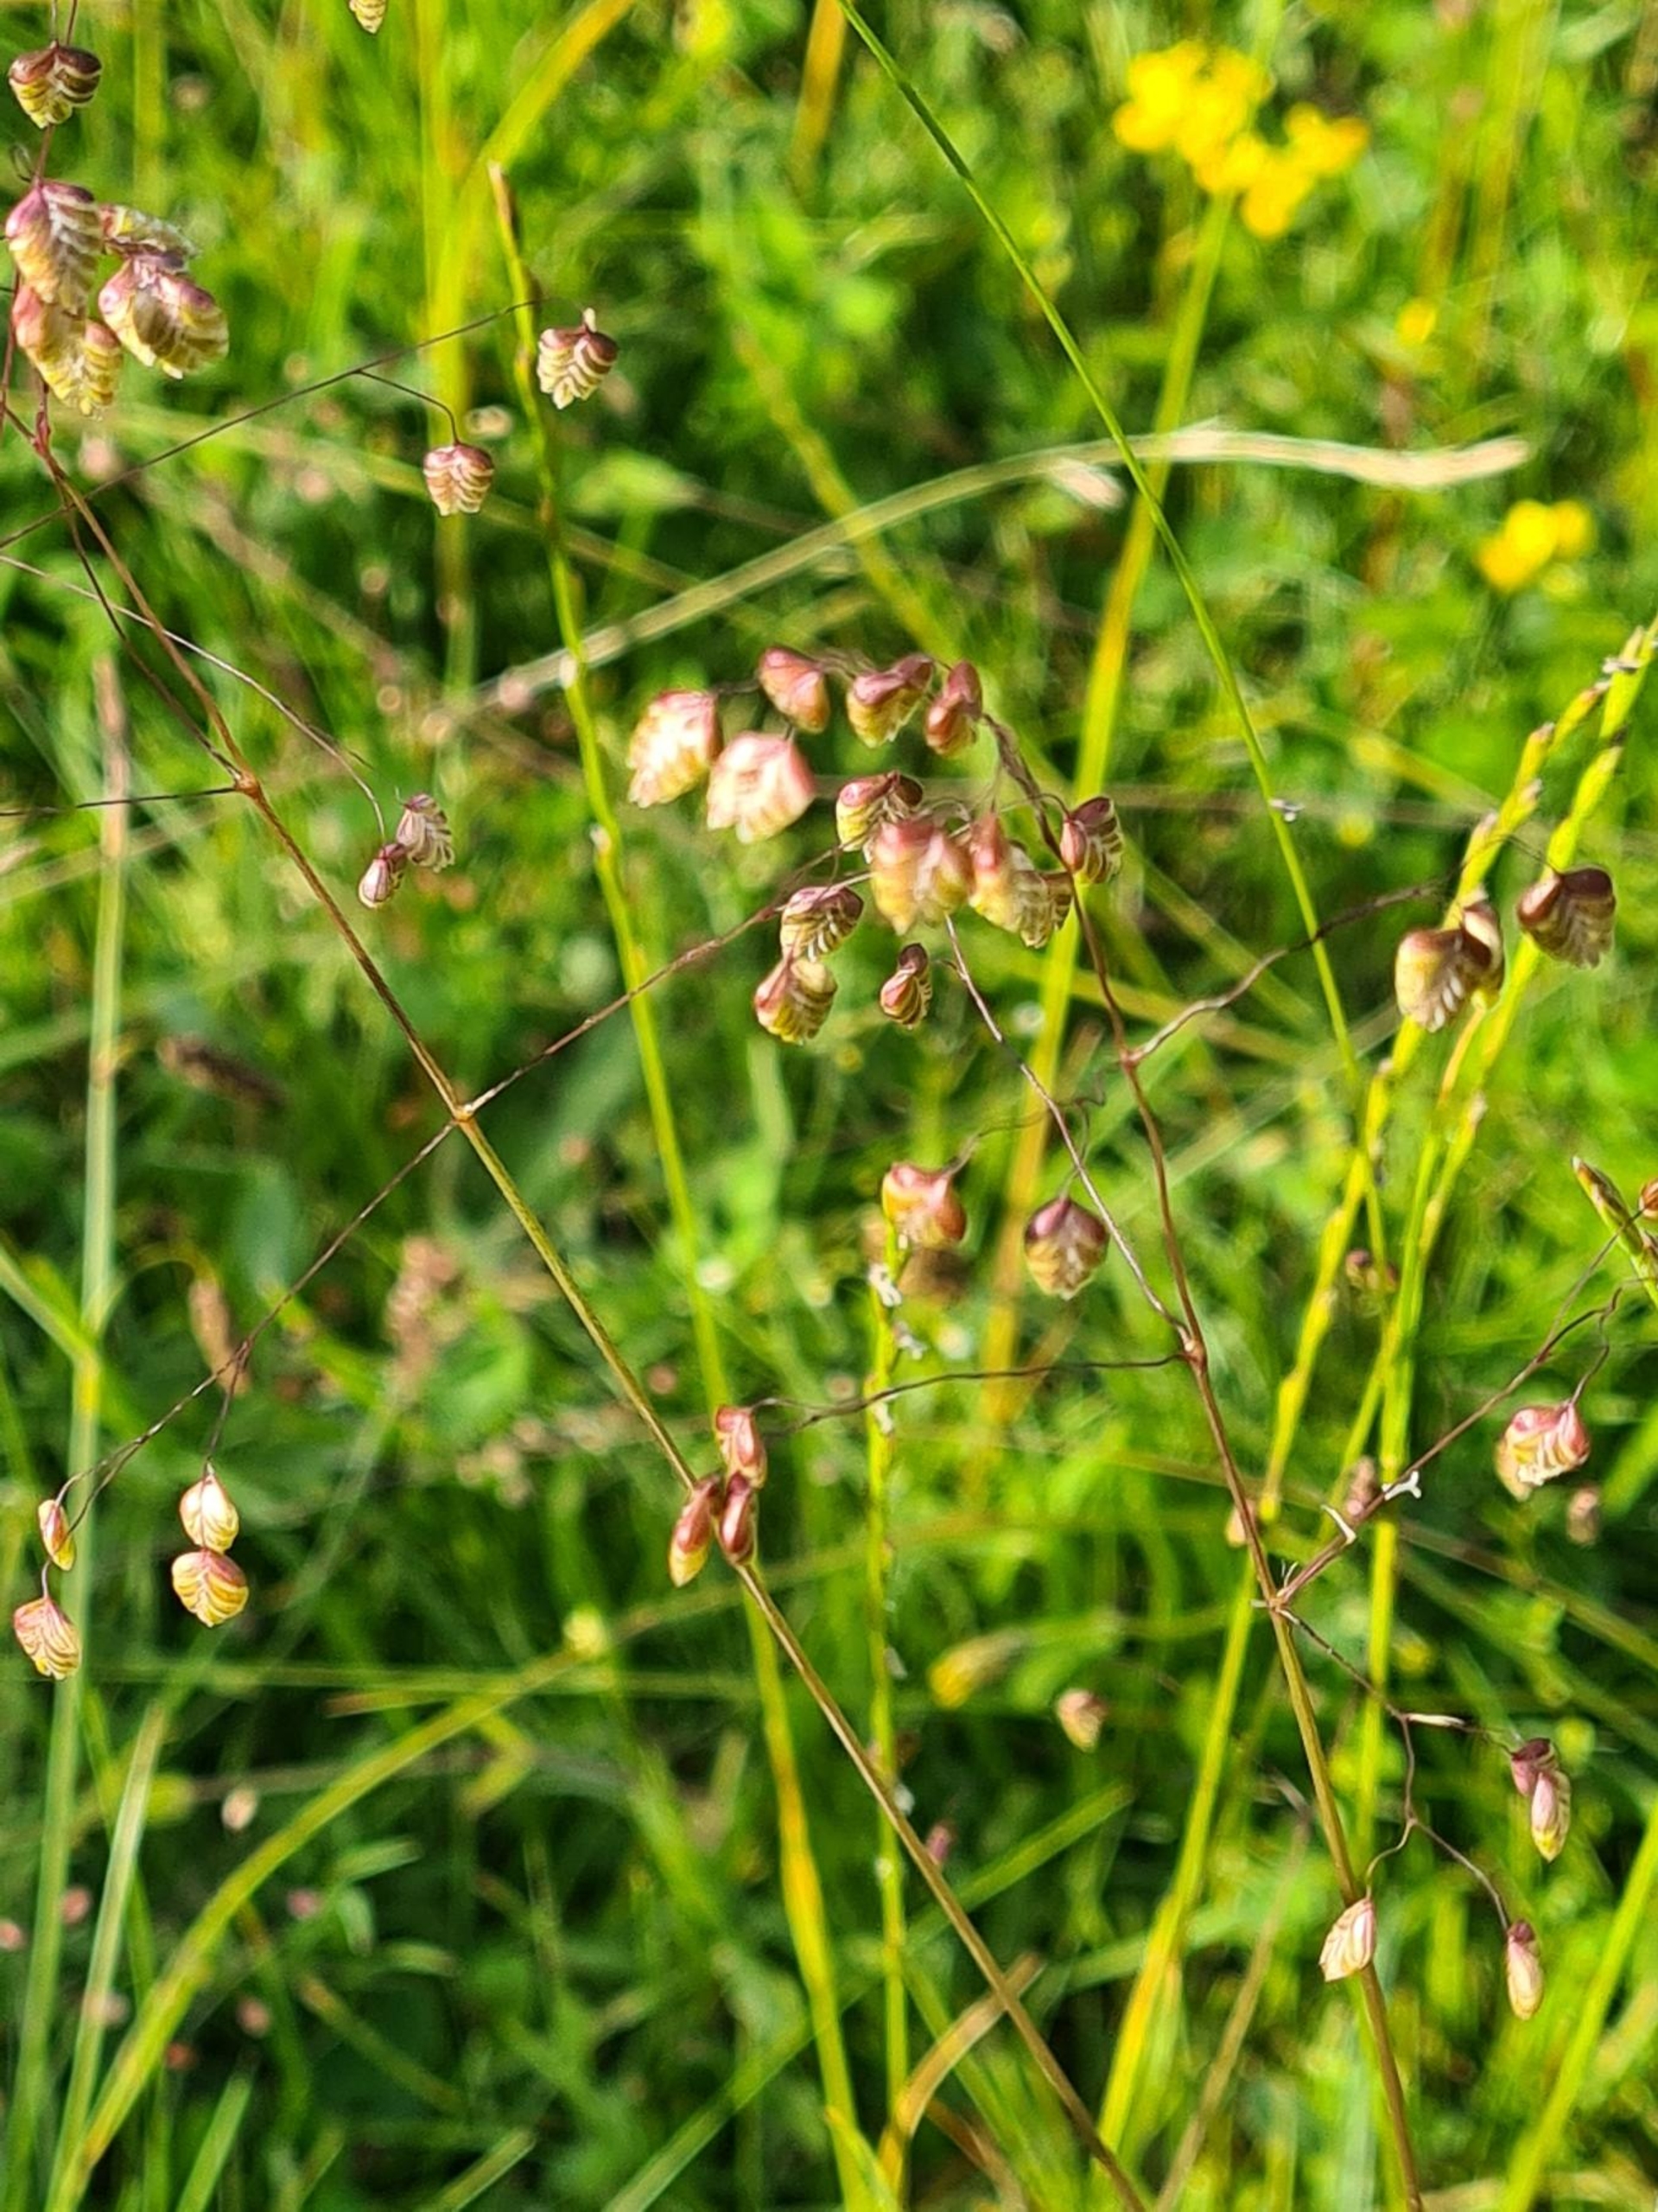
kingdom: Plantae
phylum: Tracheophyta
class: Liliopsida
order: Poales
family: Poaceae
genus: Briza
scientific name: Briza media
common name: Hjertegræs
